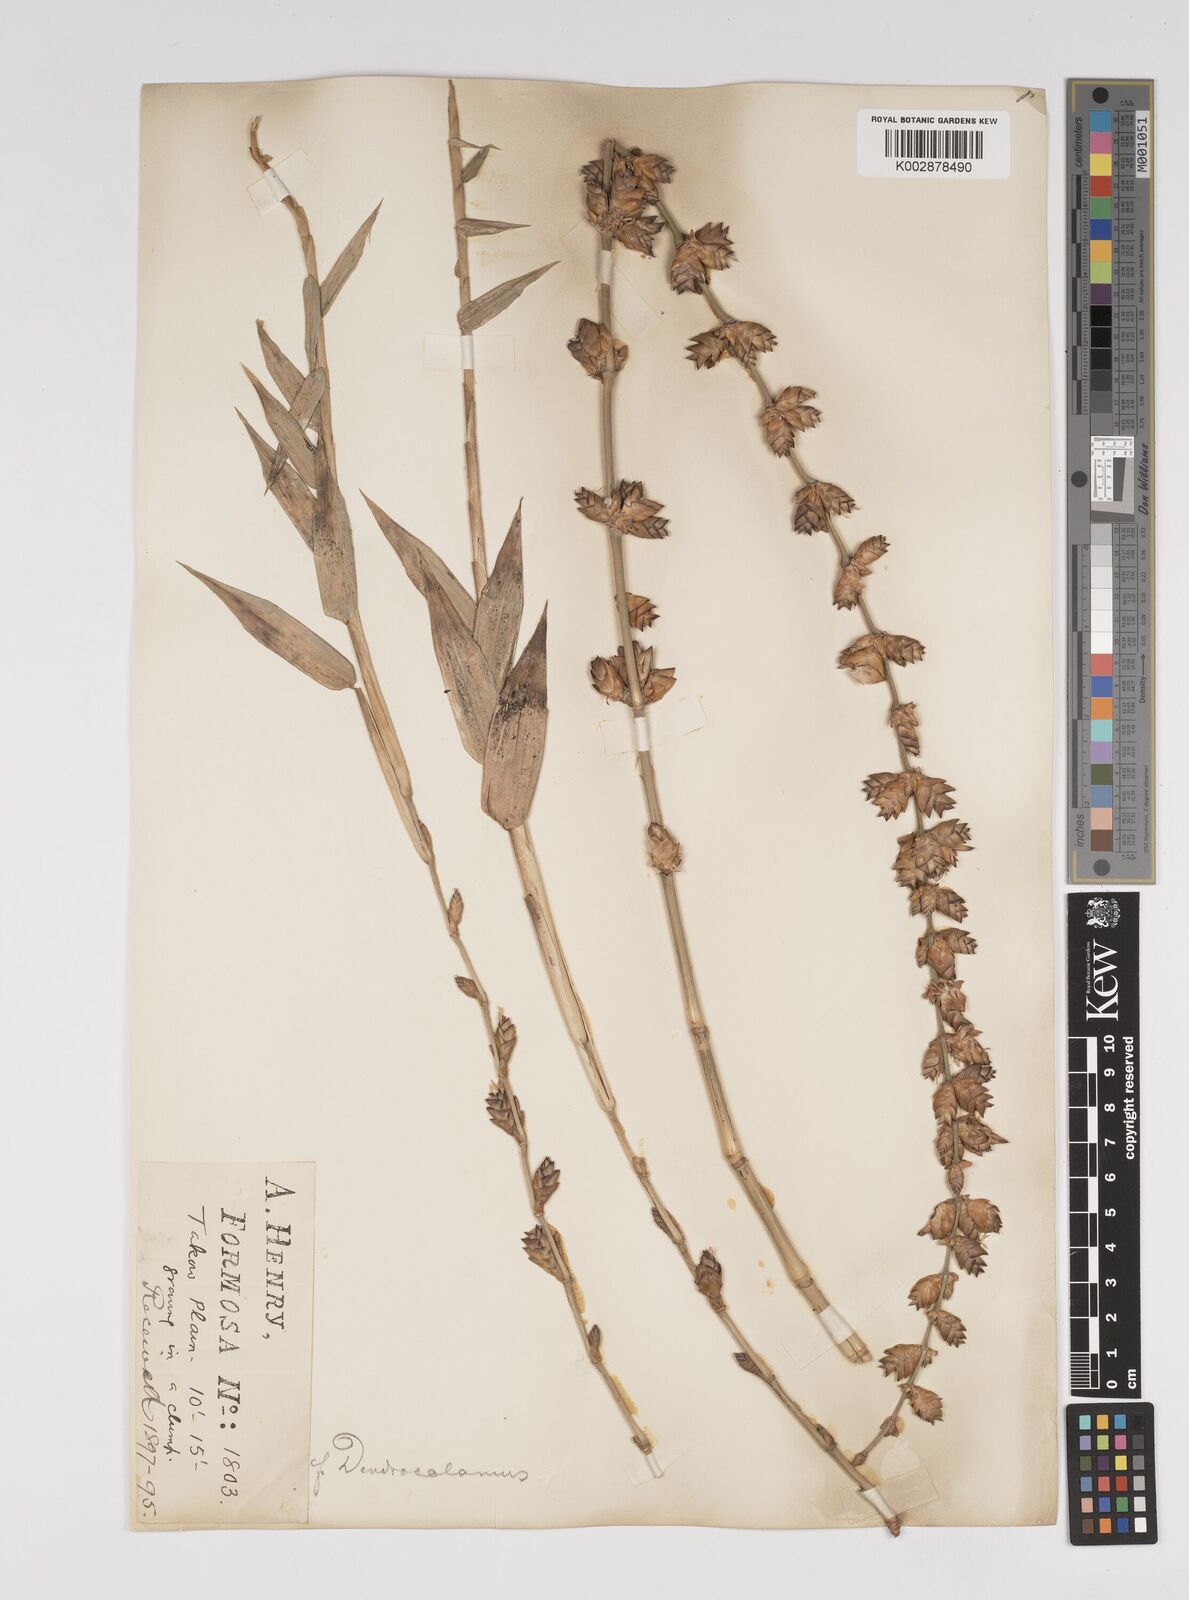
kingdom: Plantae
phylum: Tracheophyta
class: Liliopsida
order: Poales
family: Poaceae
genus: Dendrocalamus
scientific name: Dendrocalamus latiflorus
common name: Giant bamboo
